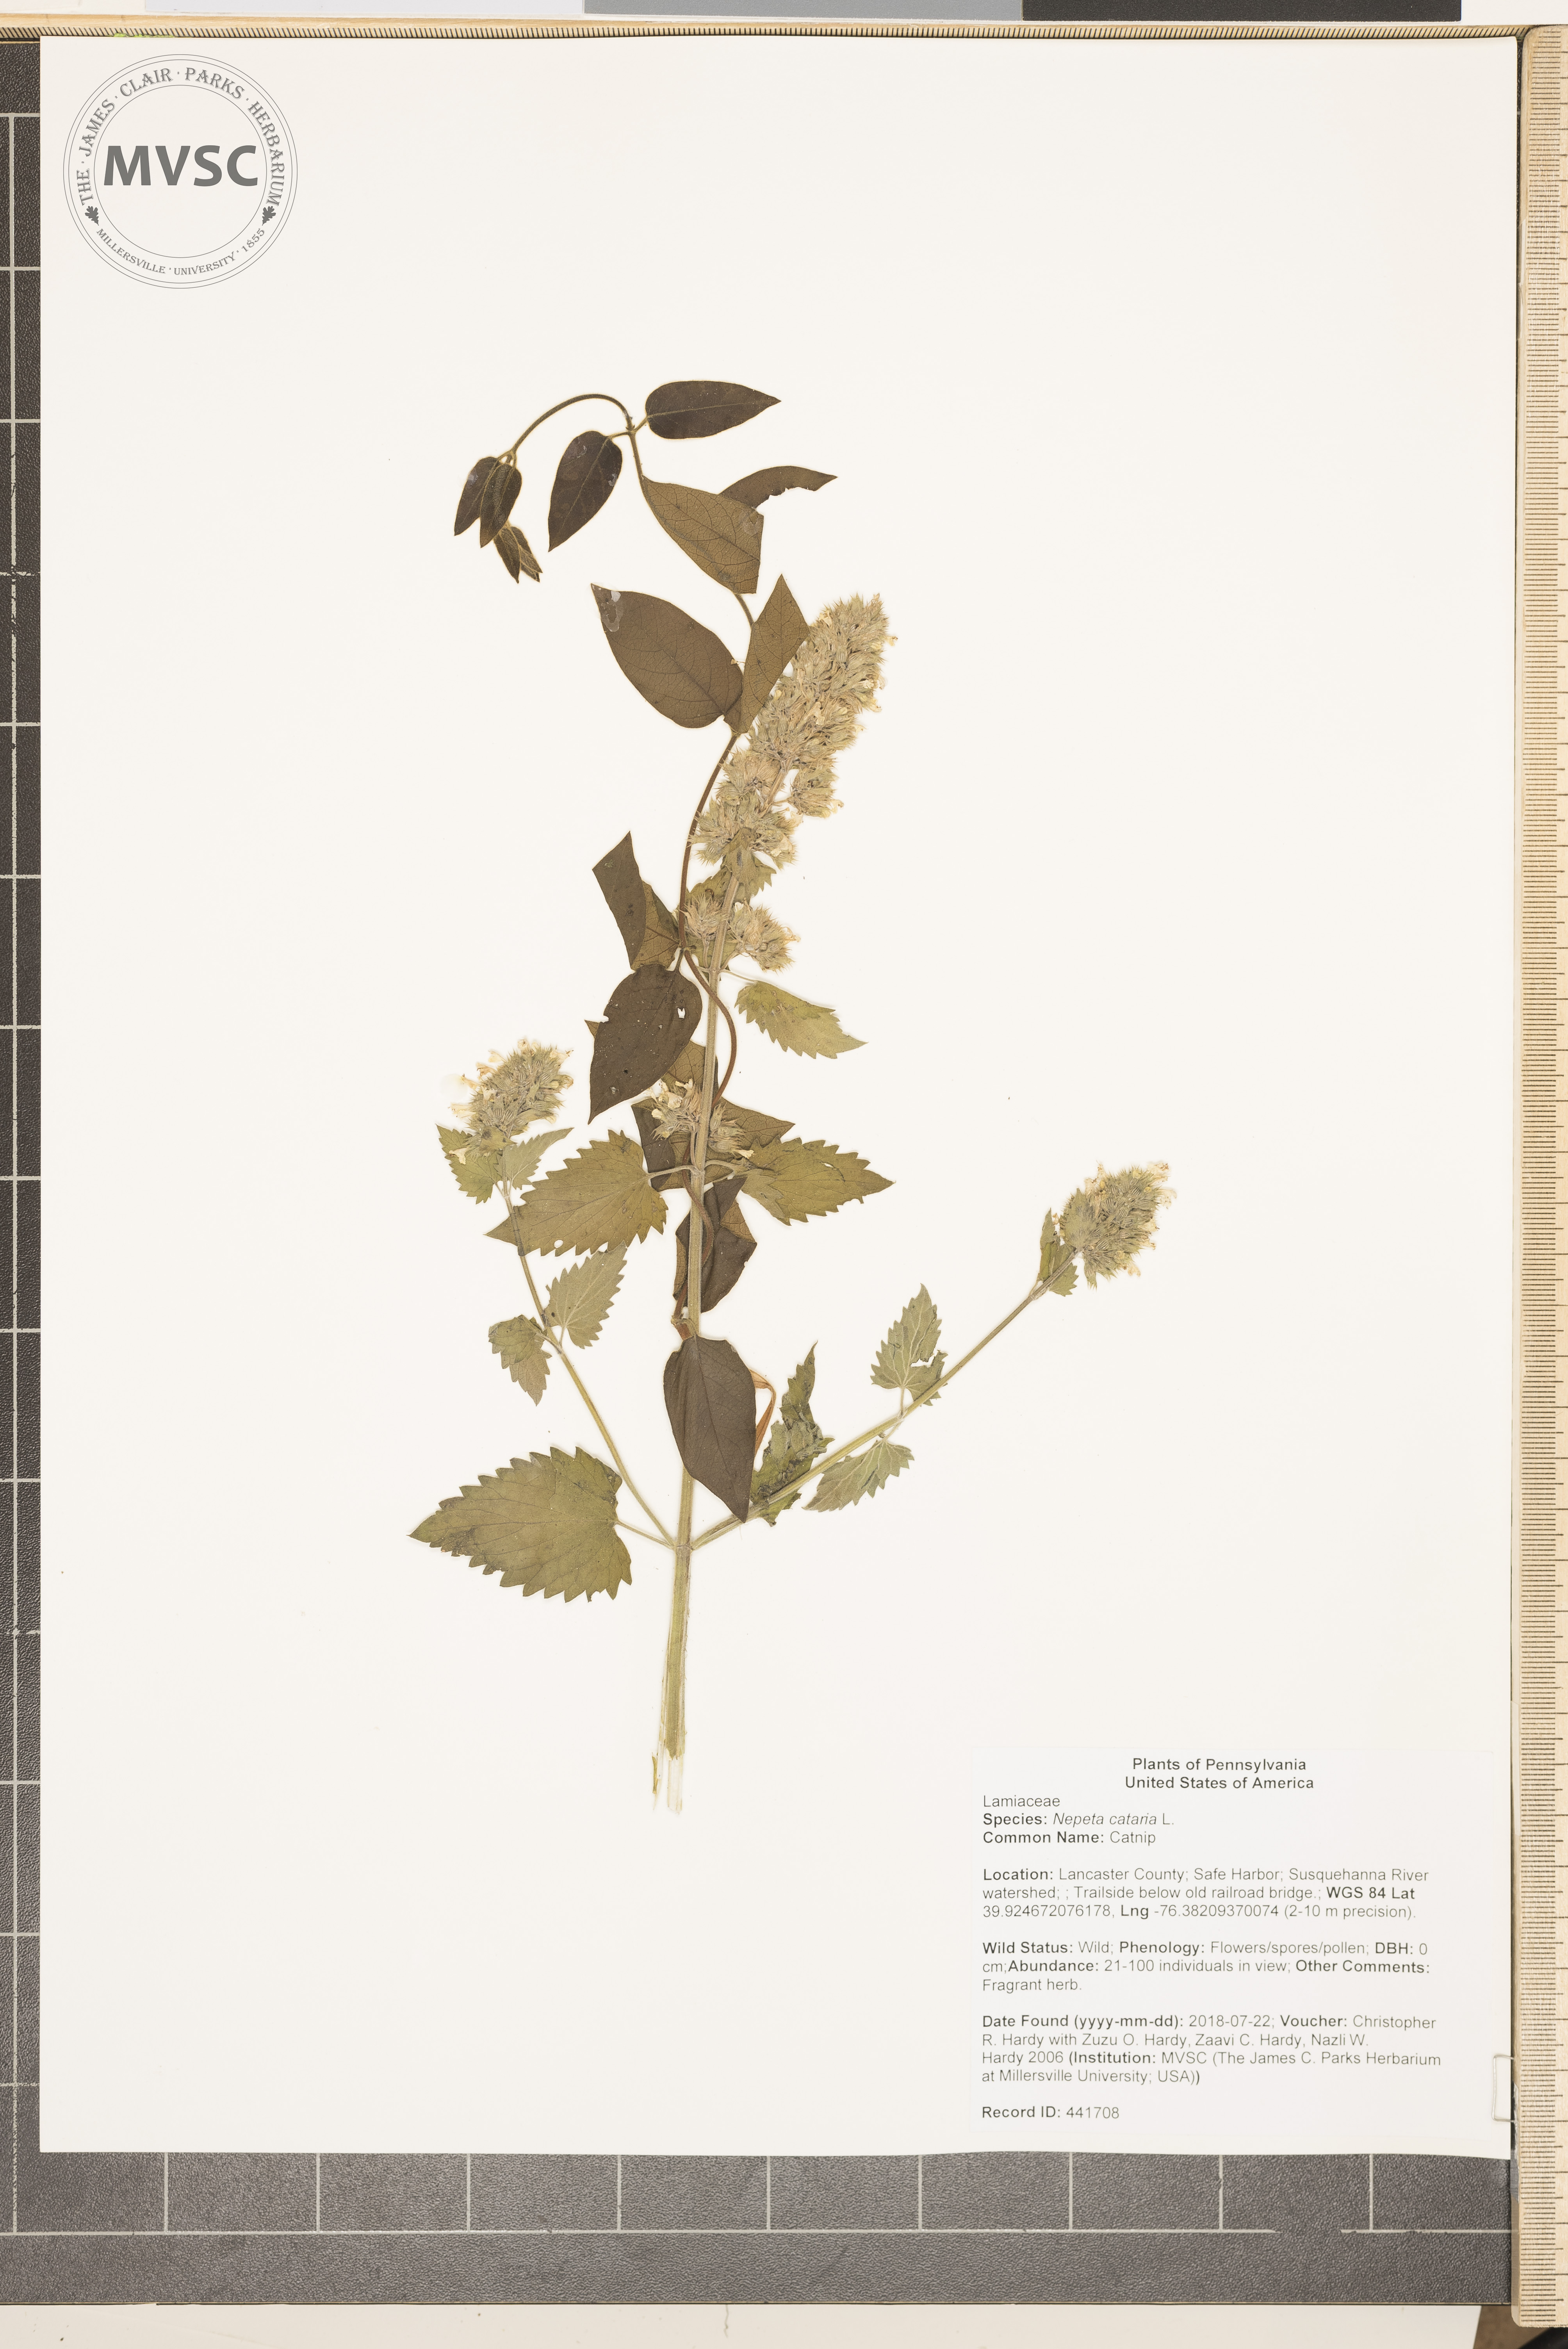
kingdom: Plantae
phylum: Tracheophyta
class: Magnoliopsida
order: Lamiales
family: Lamiaceae
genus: Nepeta
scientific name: Nepeta cataria
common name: Catnip
